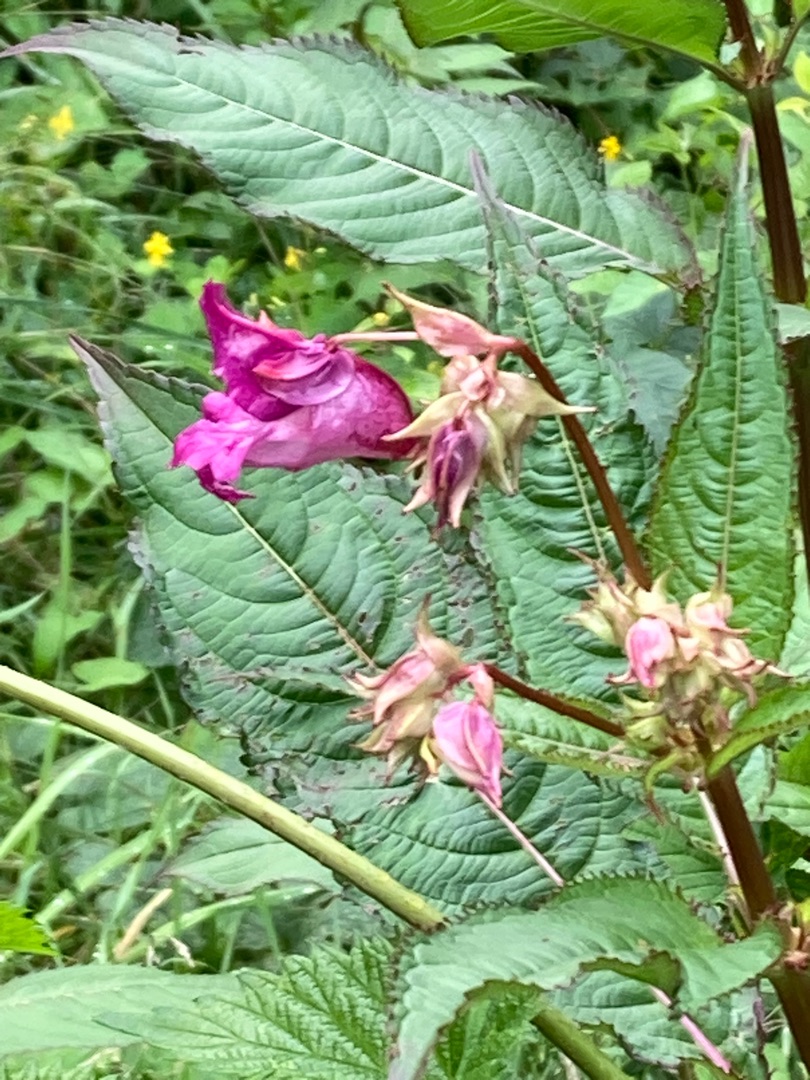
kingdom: Plantae
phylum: Tracheophyta
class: Magnoliopsida
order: Ericales
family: Balsaminaceae
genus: Impatiens
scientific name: Impatiens glandulifera
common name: Kæmpe-balsamin
